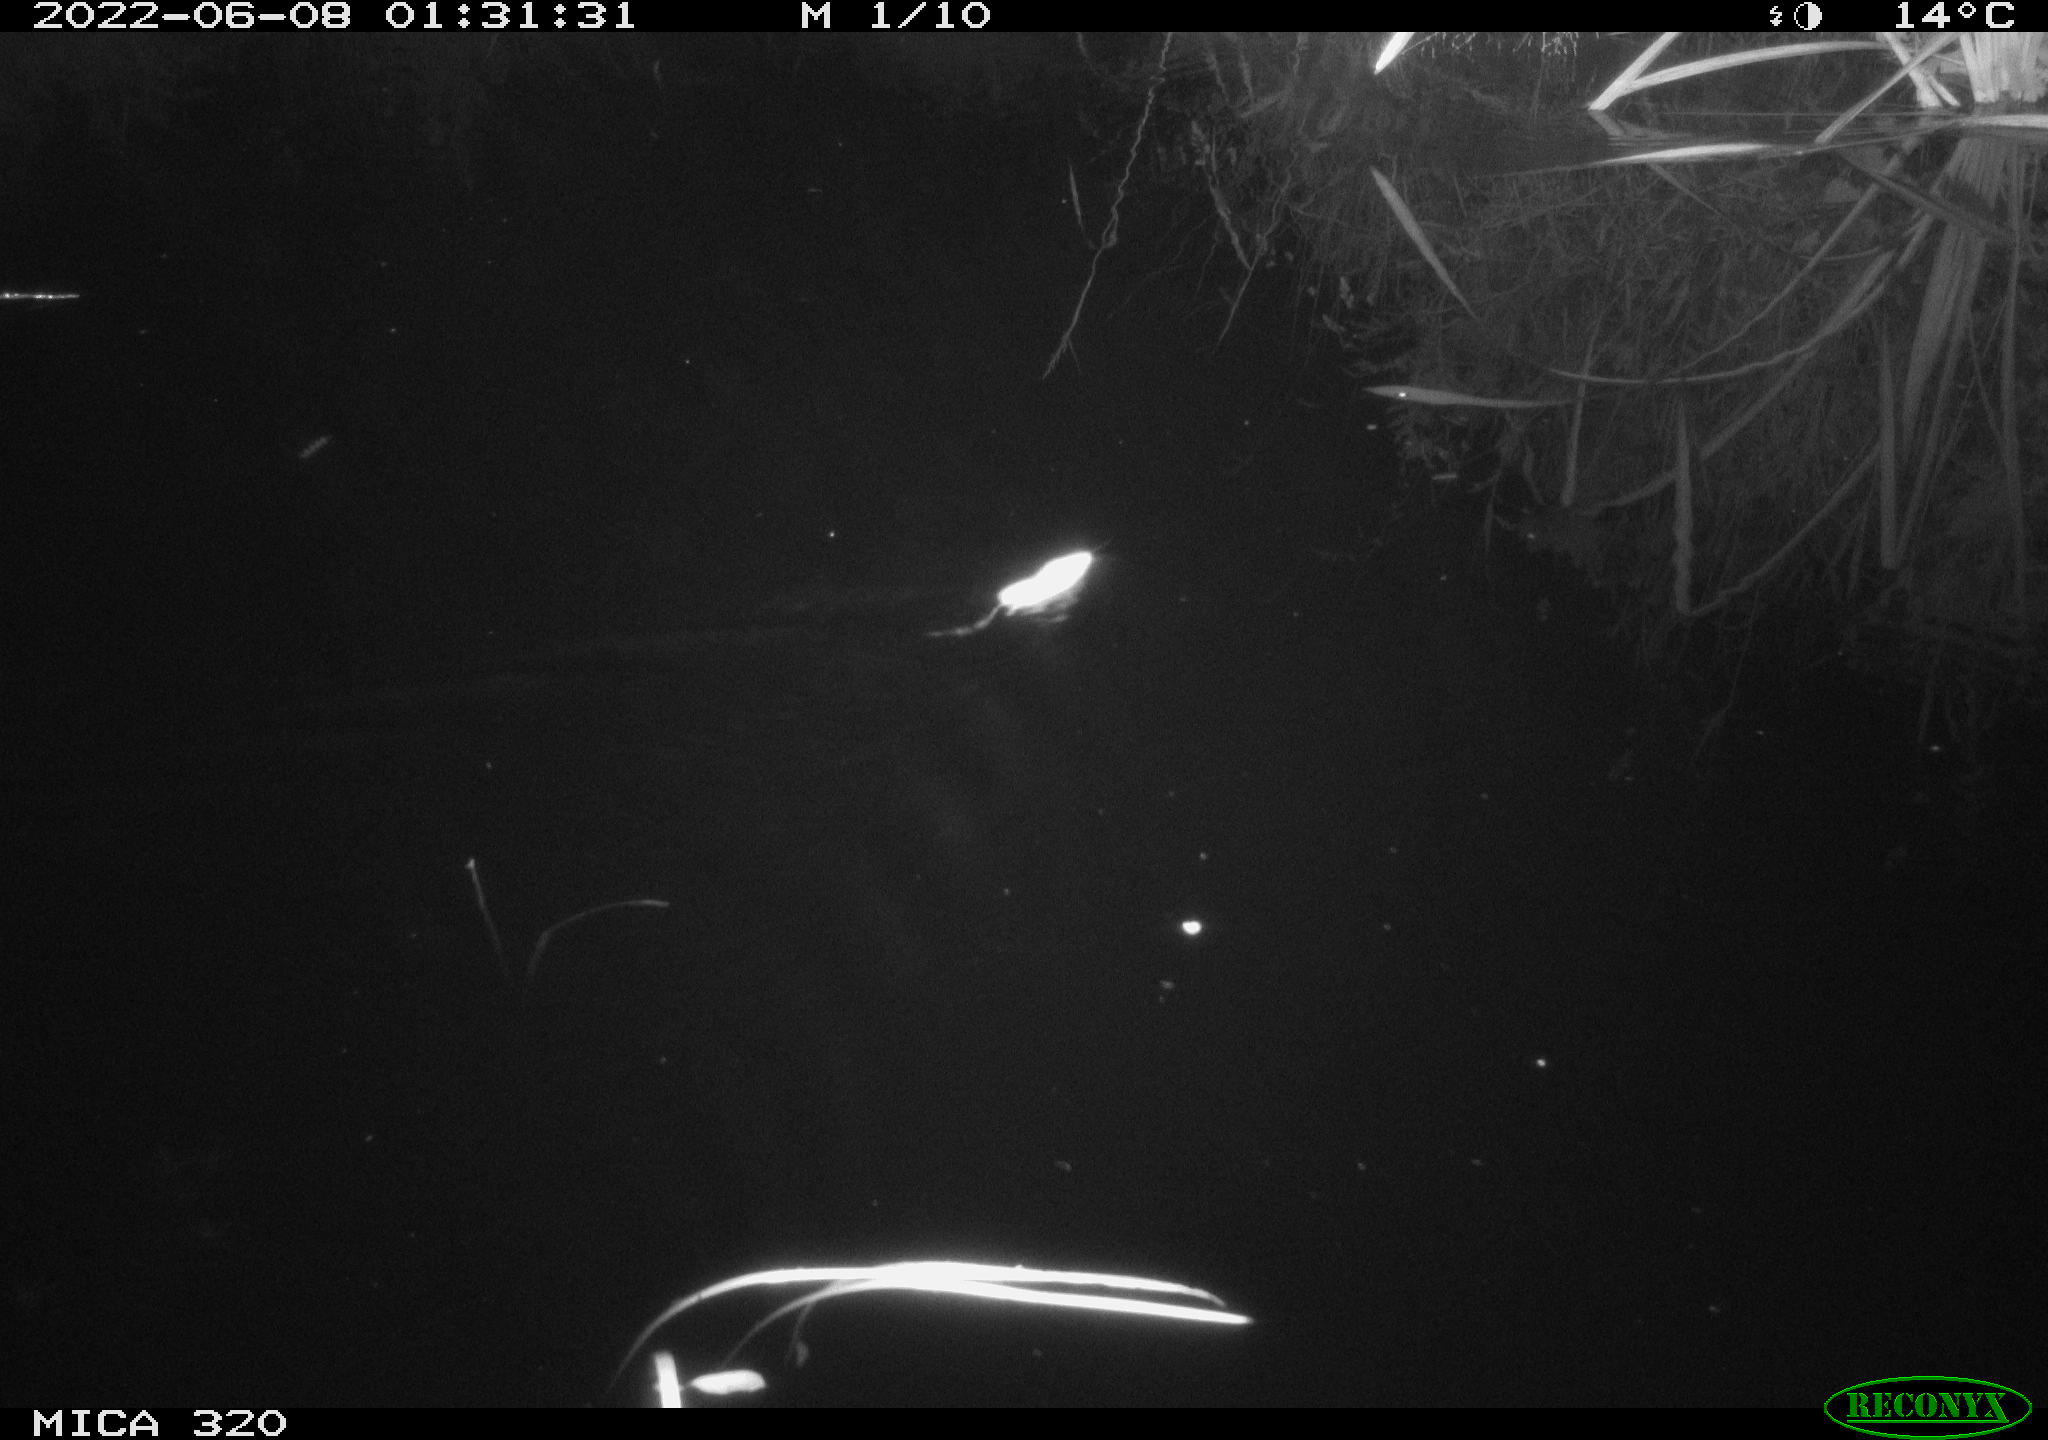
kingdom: Animalia
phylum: Chordata
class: Mammalia
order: Rodentia
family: Muridae
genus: Rattus
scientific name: Rattus norvegicus
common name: Brown rat
